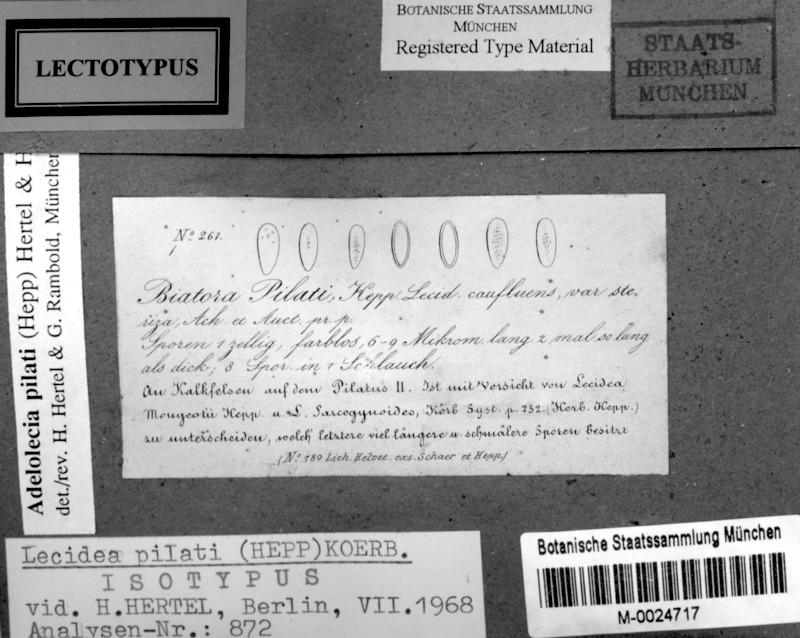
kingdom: Fungi
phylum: Ascomycota
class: Lecanoromycetes
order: Lecanorales
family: Lecanoraceae
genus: Adelolecia
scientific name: Adelolecia pilati
